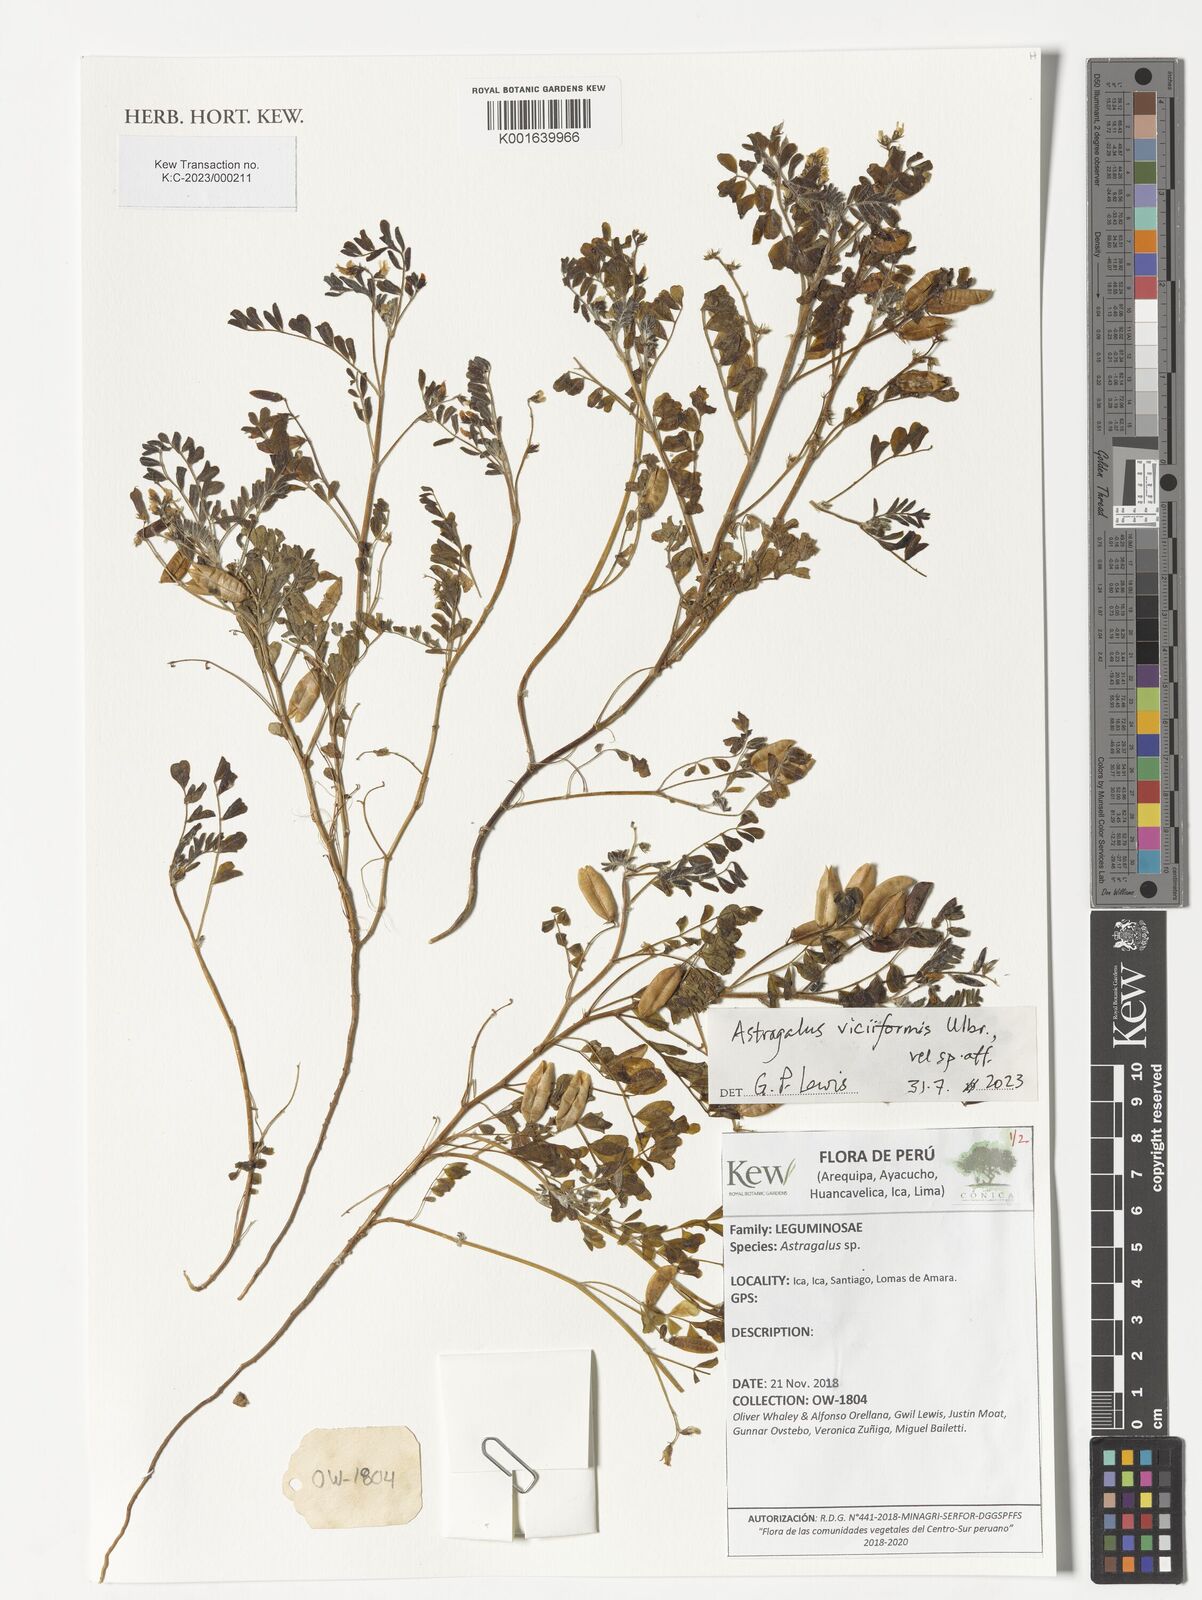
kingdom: Plantae
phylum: Tracheophyta
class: Magnoliopsida
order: Fabales
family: Fabaceae
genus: Astragalus
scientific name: Astragalus triflorus
